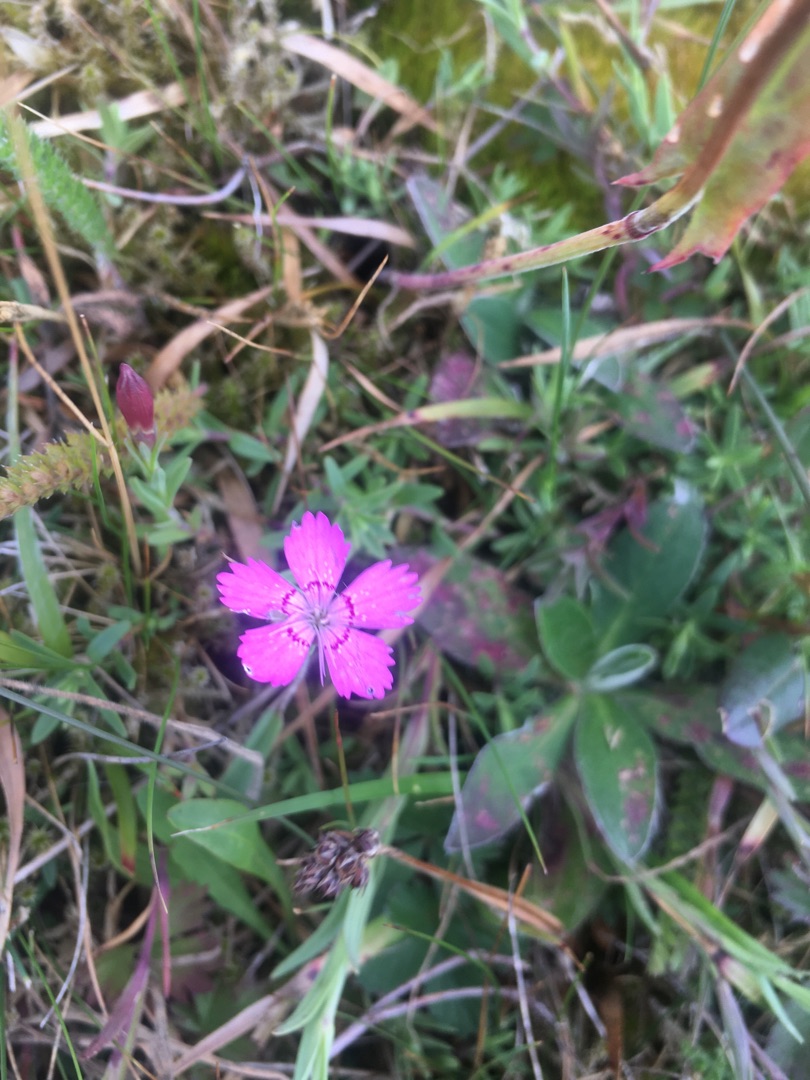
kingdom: Plantae
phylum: Tracheophyta
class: Magnoliopsida
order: Caryophyllales
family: Caryophyllaceae
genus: Dianthus
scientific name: Dianthus deltoides
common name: Bakke-nellike
